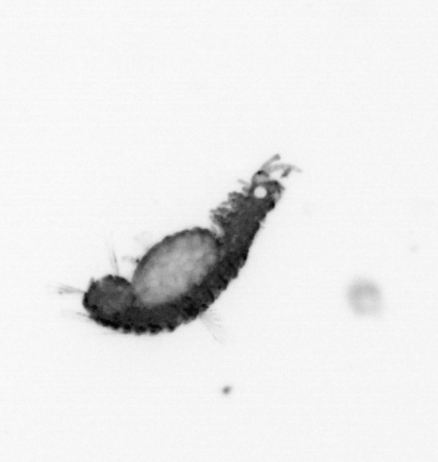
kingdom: Animalia
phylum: Annelida
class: Polychaeta
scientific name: Polychaeta
